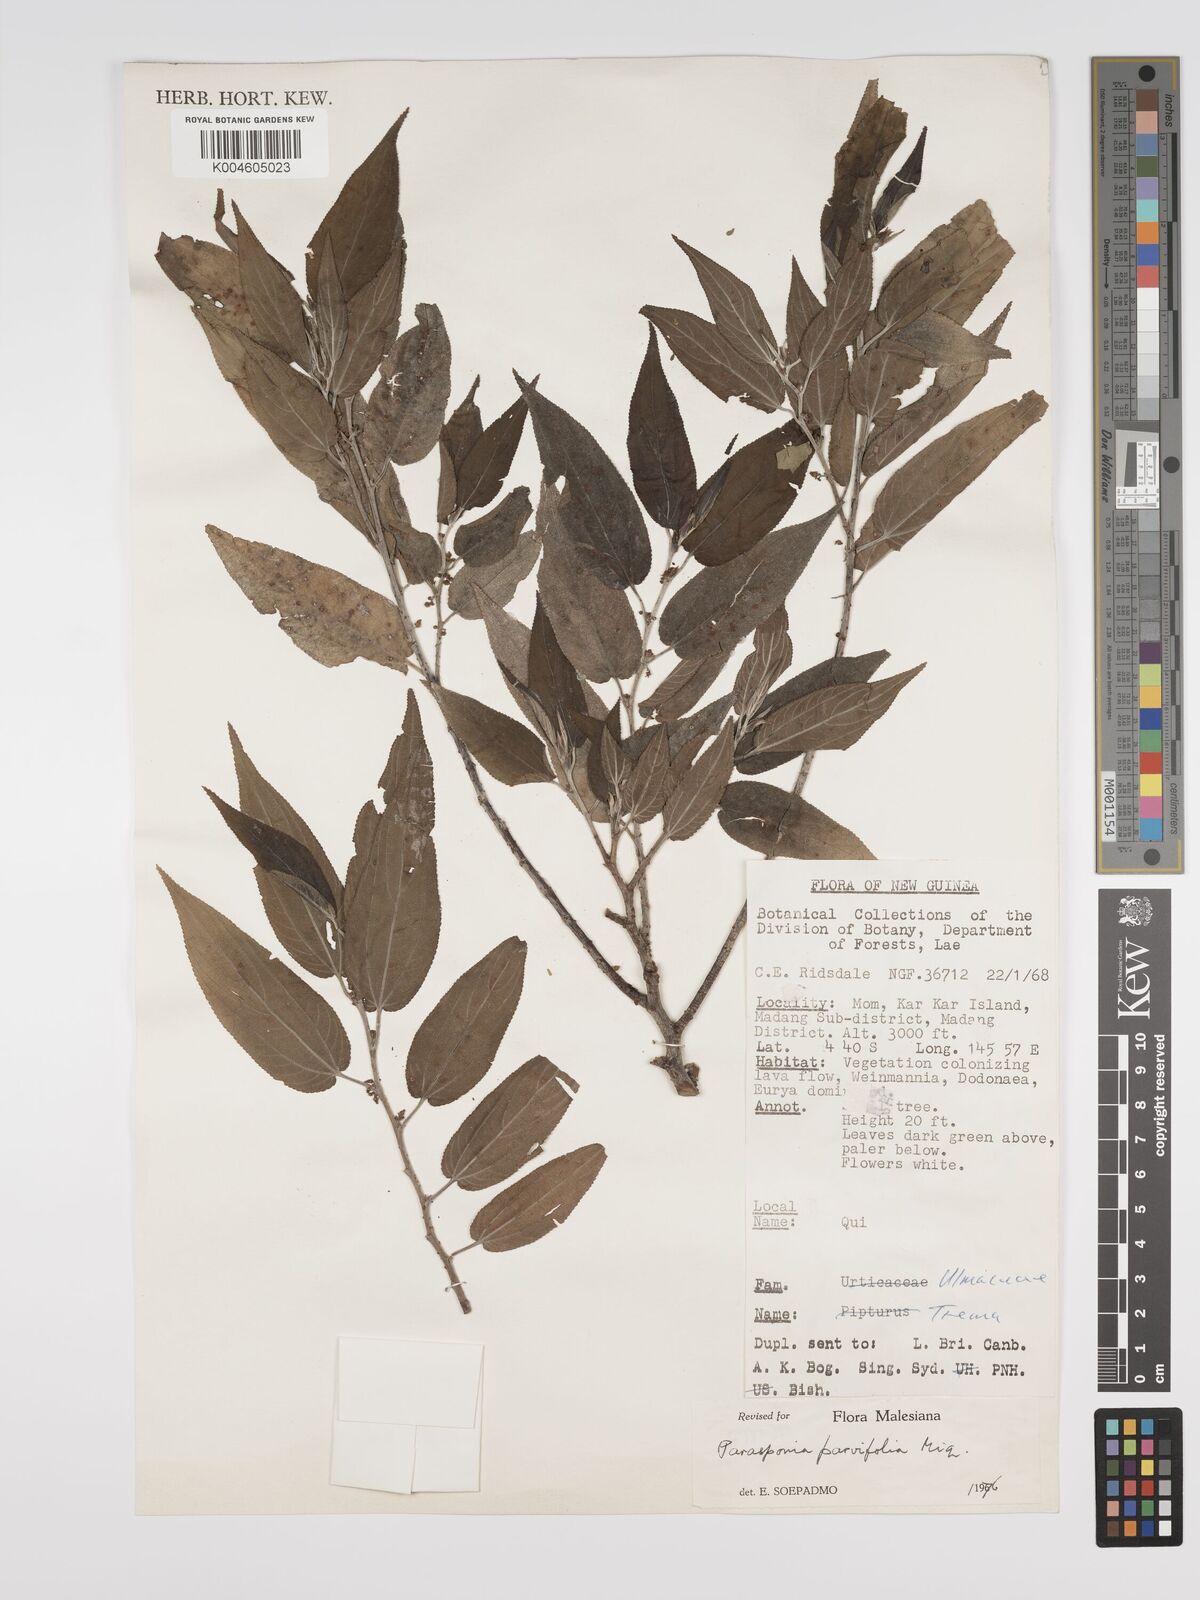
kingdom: Plantae
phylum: Tracheophyta
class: Magnoliopsida
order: Rosales
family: Cannabaceae
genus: Trema
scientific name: Trema parviflorum
